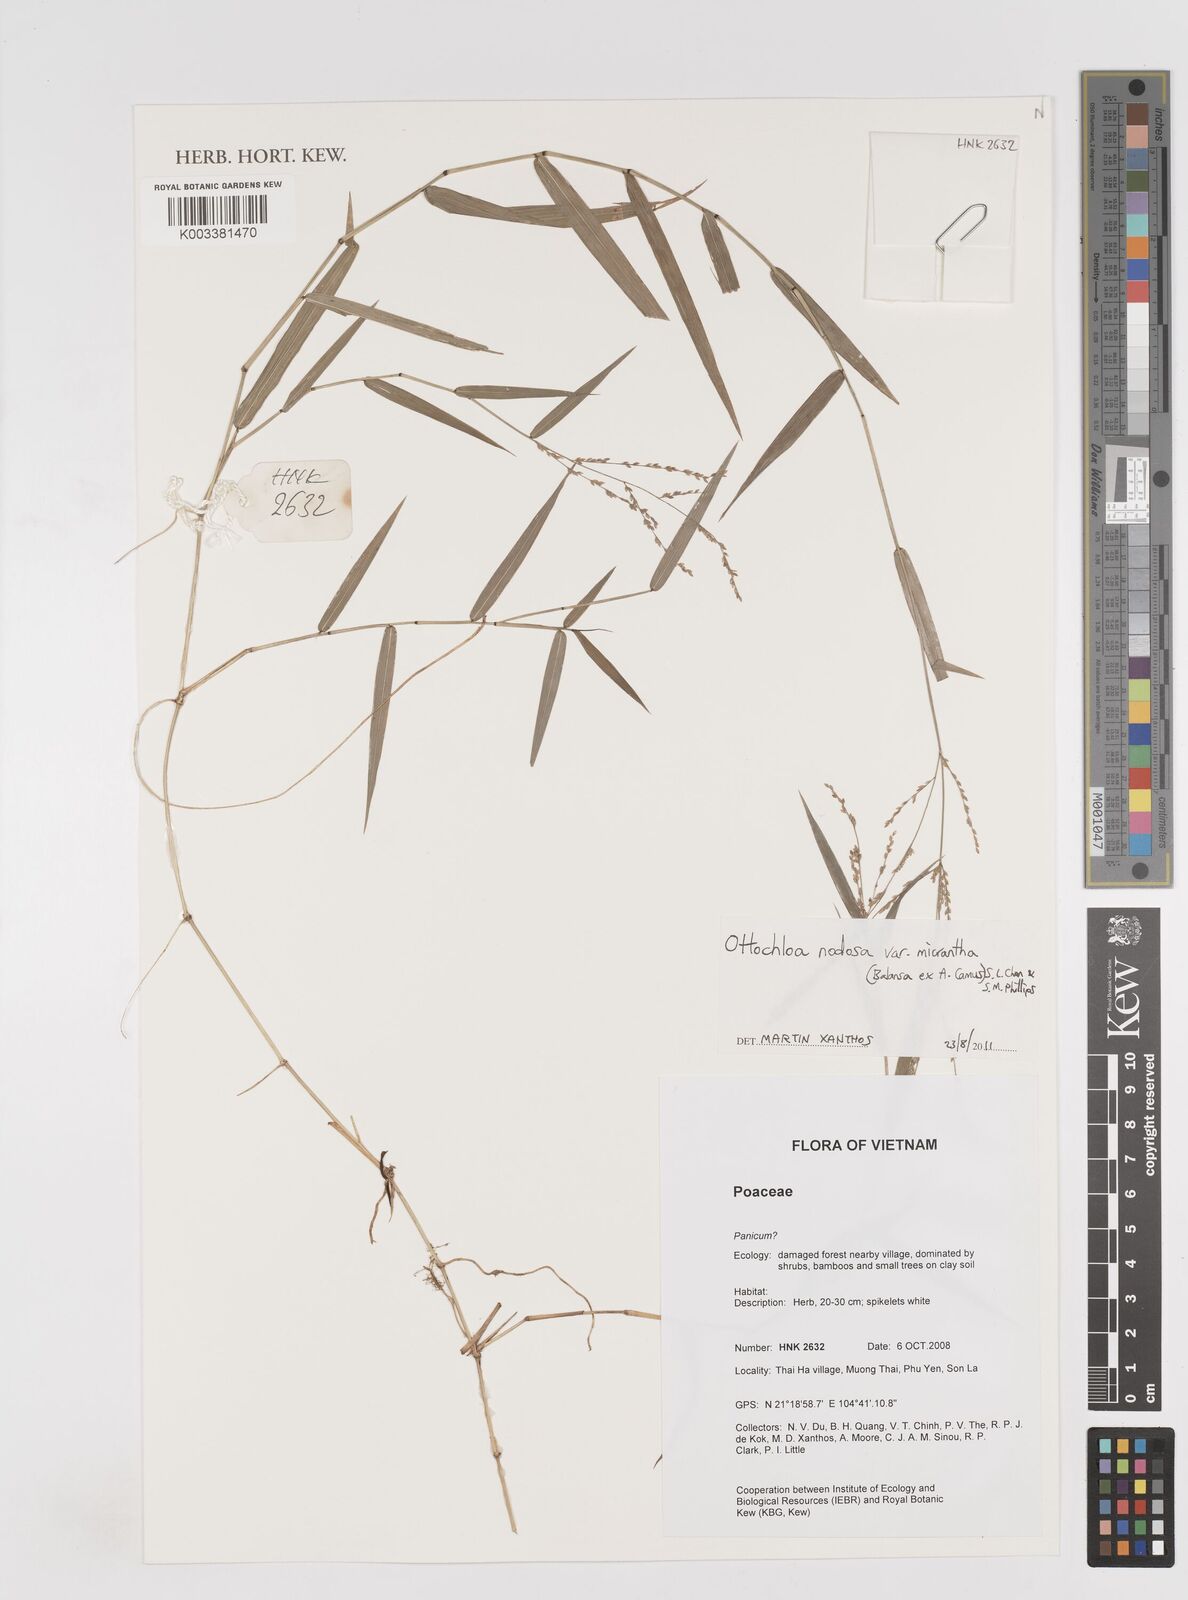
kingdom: Plantae
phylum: Tracheophyta
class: Liliopsida
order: Poales
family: Poaceae
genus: Ottochloa
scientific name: Ottochloa nodosa
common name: Slender-panic grass
